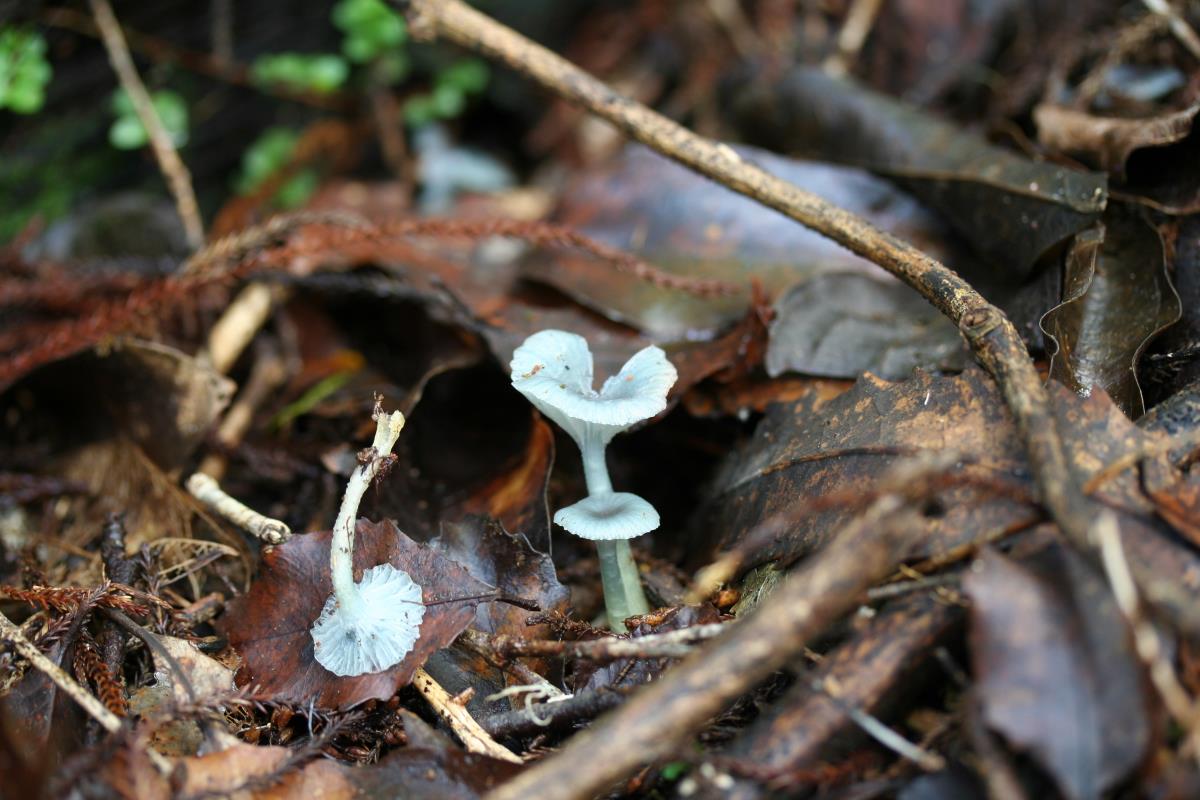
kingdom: Fungi
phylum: Basidiomycota
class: Agaricomycetes
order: Agaricales
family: Hygrophoraceae
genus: Gliophorus
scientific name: Gliophorus lilacipes
